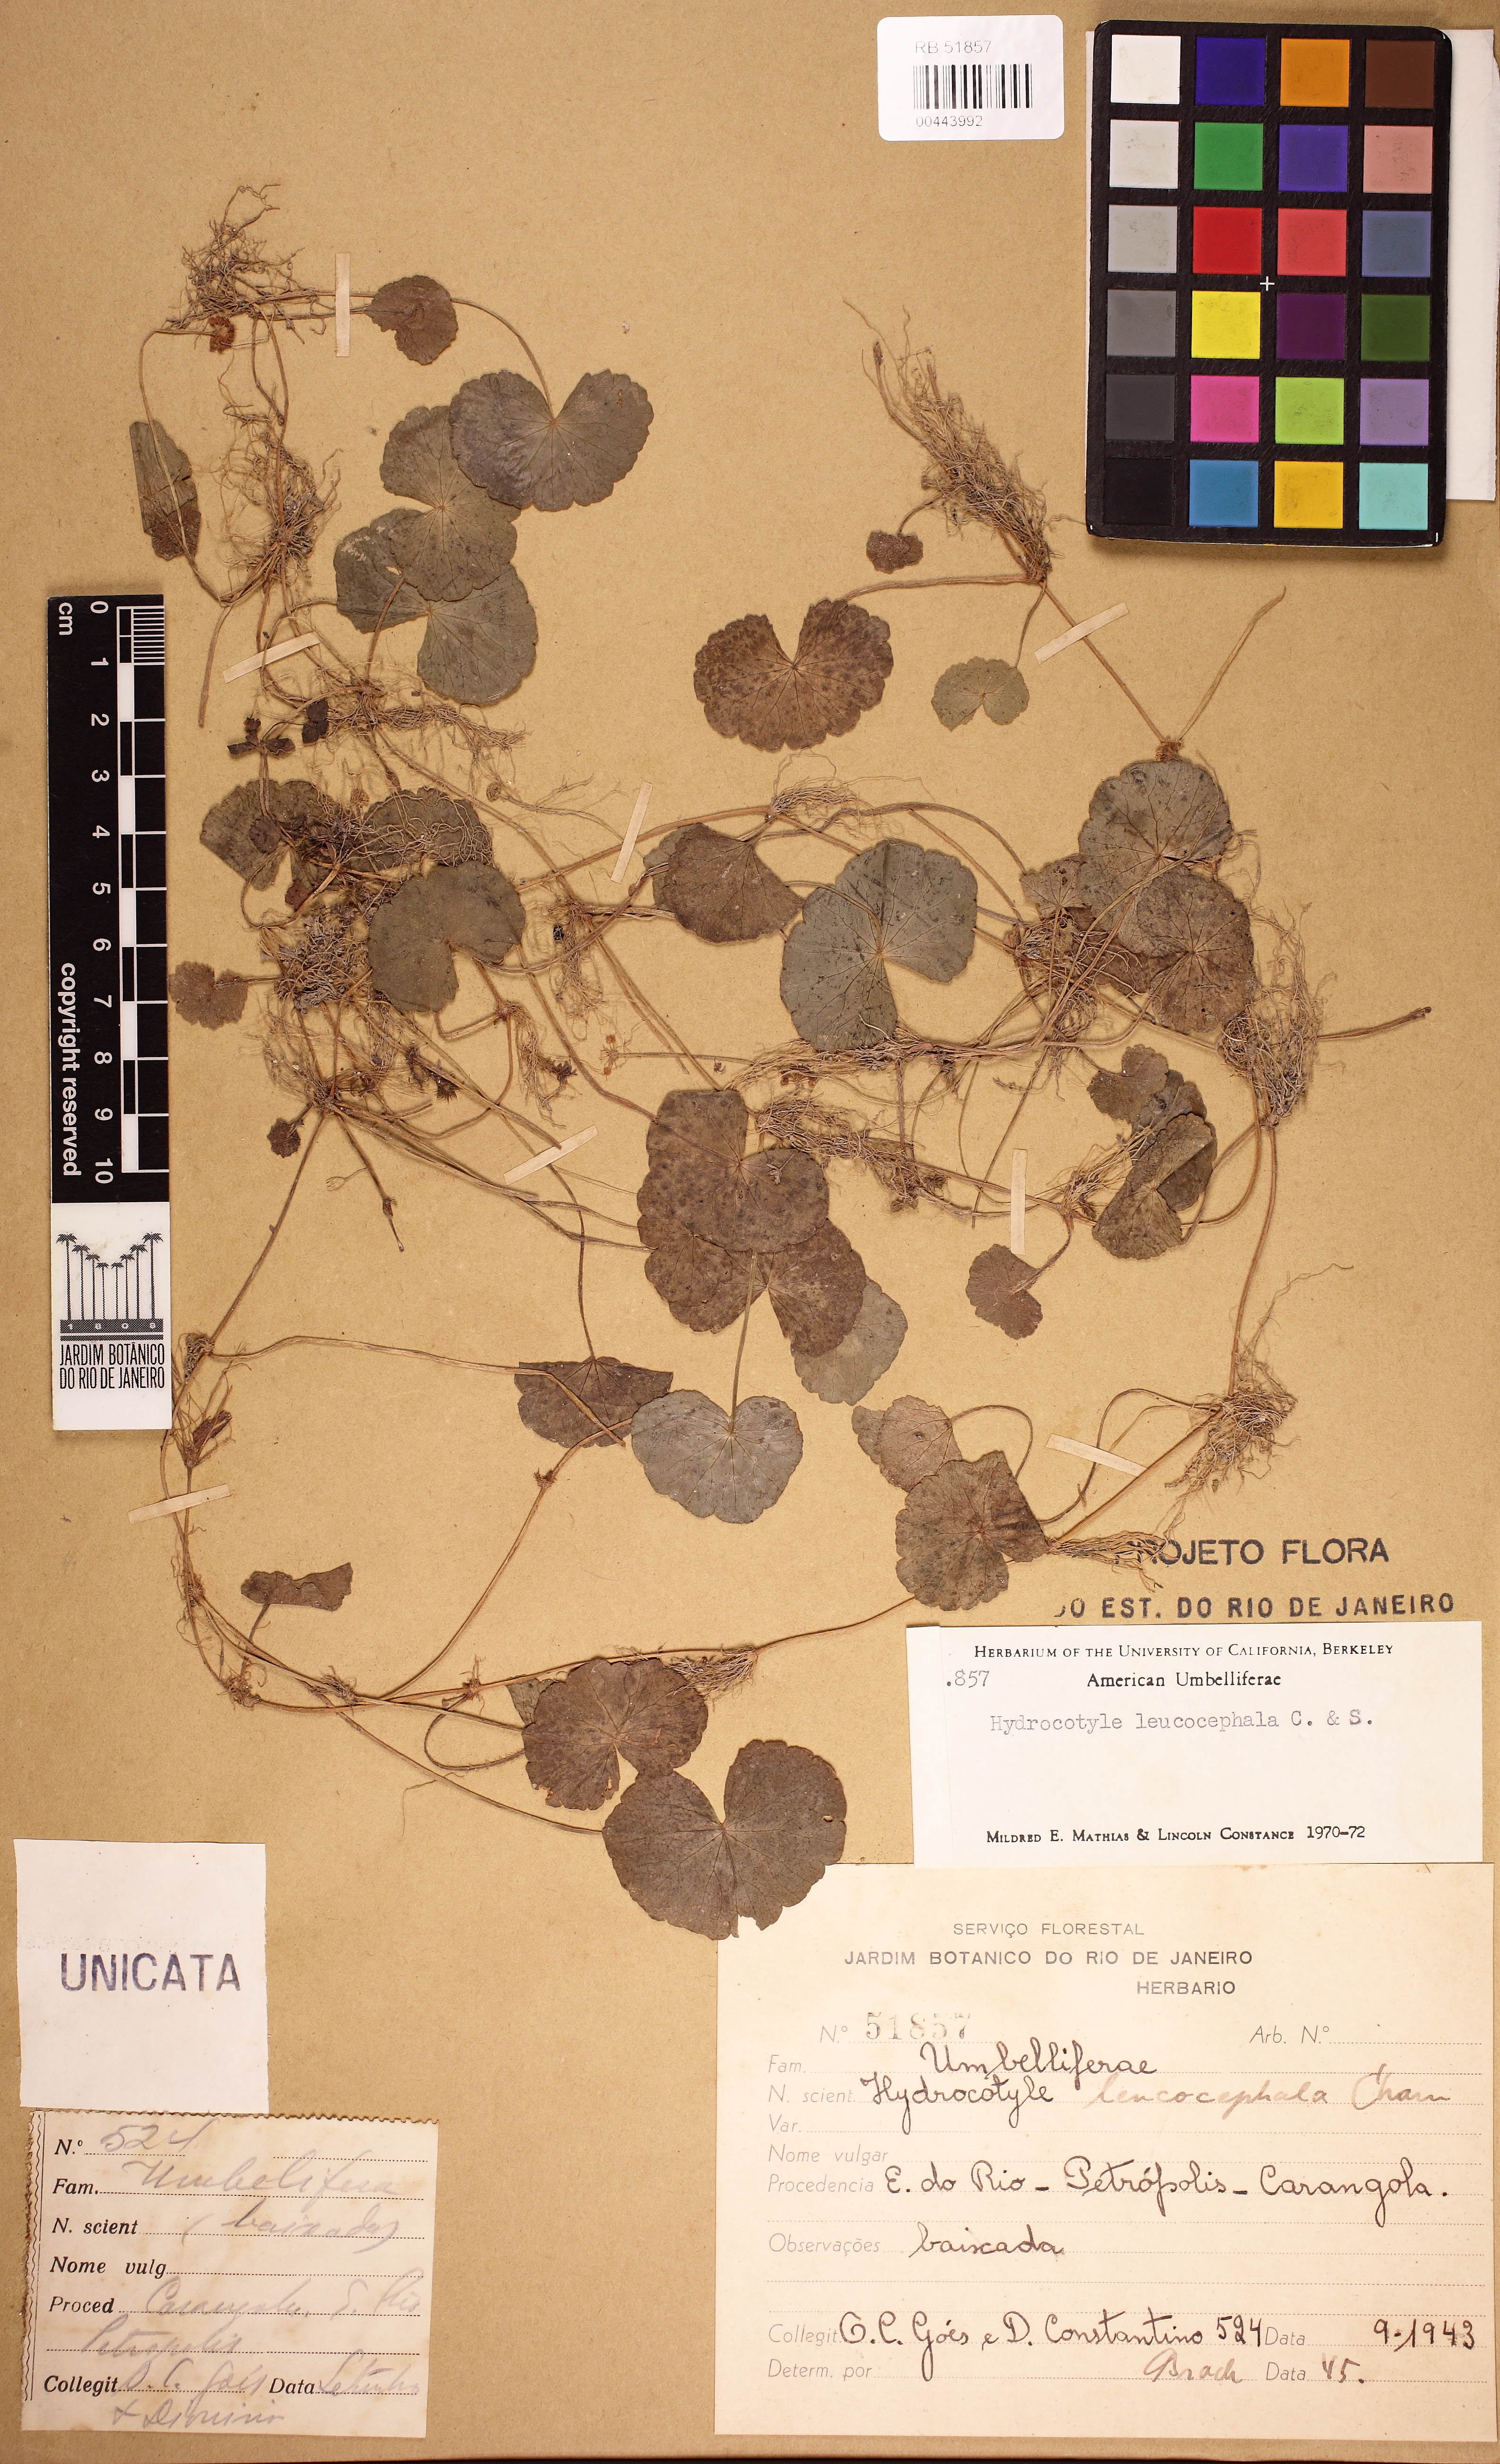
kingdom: Plantae
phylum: Tracheophyta
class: Magnoliopsida
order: Apiales
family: Araliaceae
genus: Hydrocotyle
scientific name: Hydrocotyle leucocephala
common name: Brazilian pennywort
